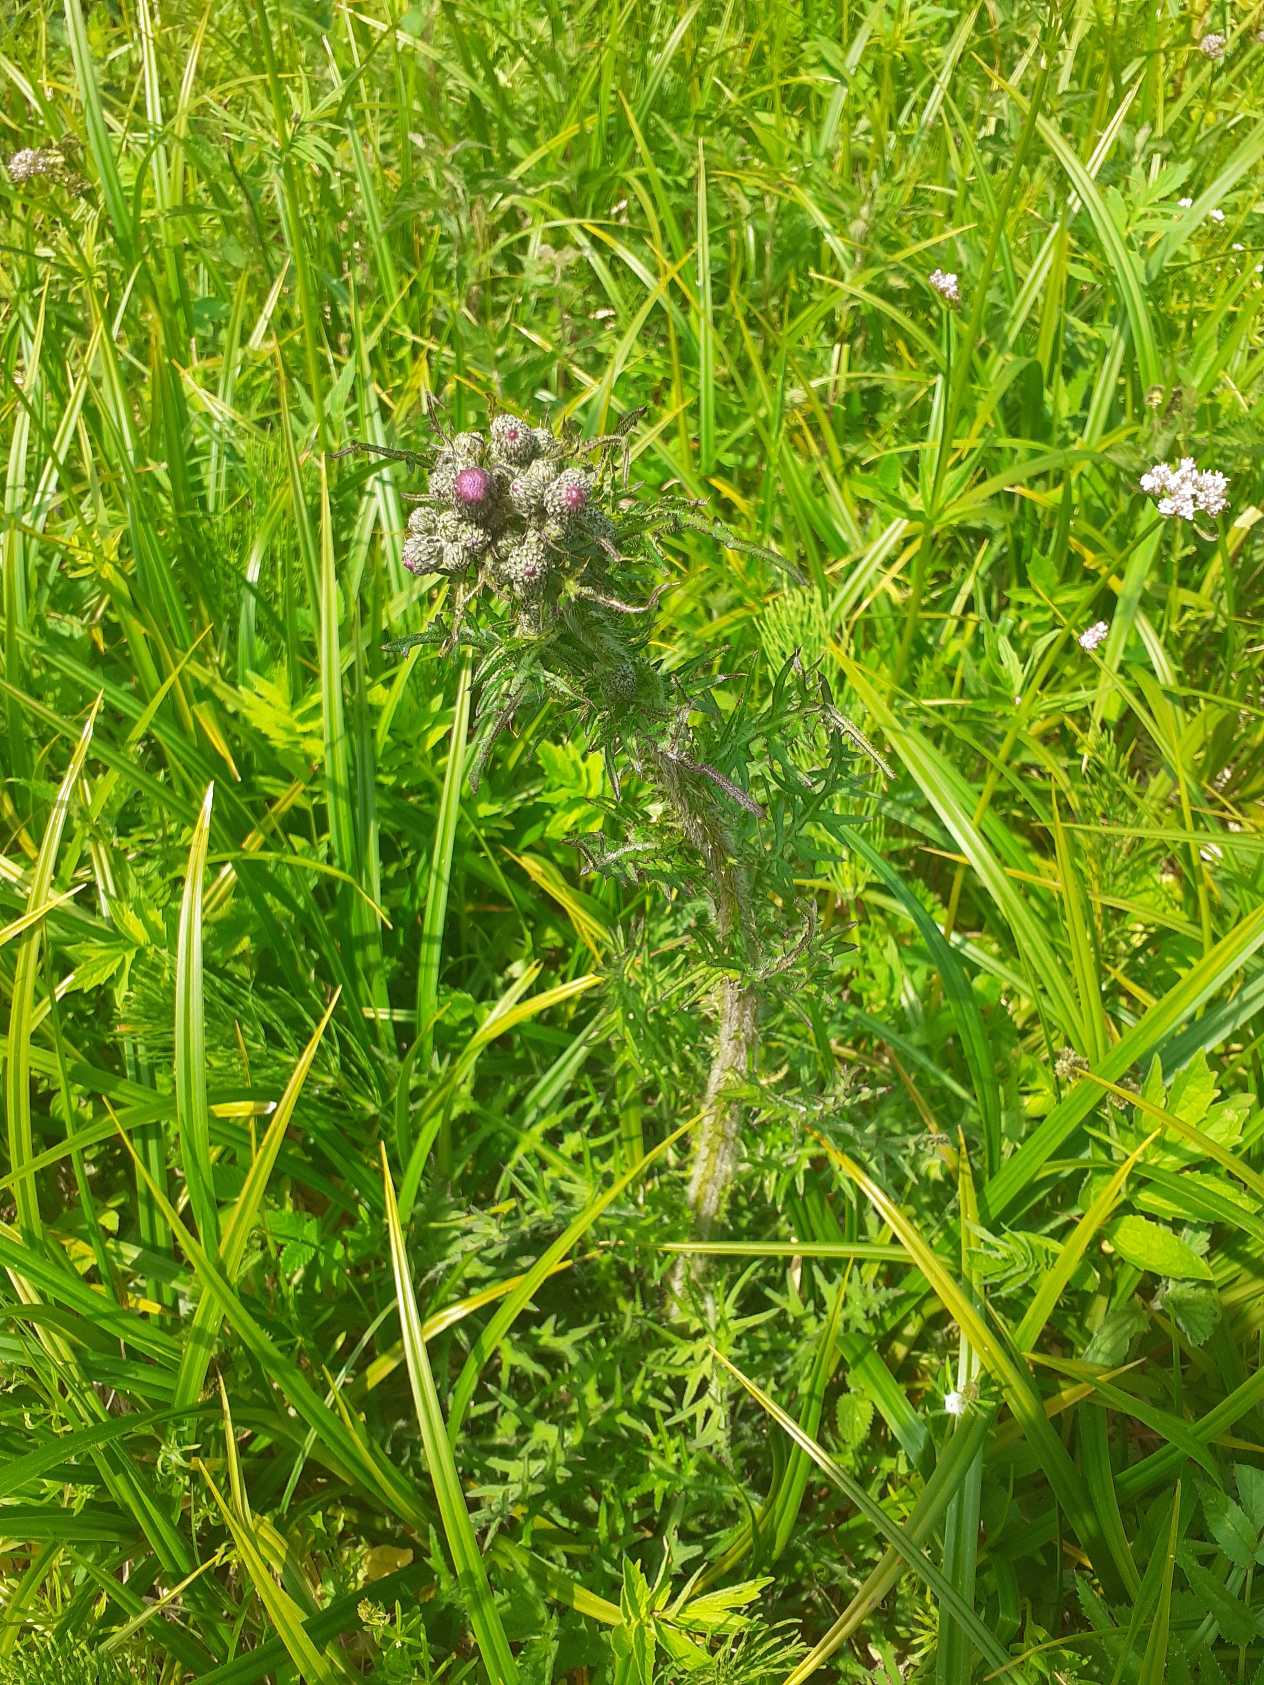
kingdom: Plantae
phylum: Tracheophyta
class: Magnoliopsida
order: Asterales
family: Asteraceae
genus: Cirsium
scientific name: Cirsium palustre
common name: Kær-tidsel
